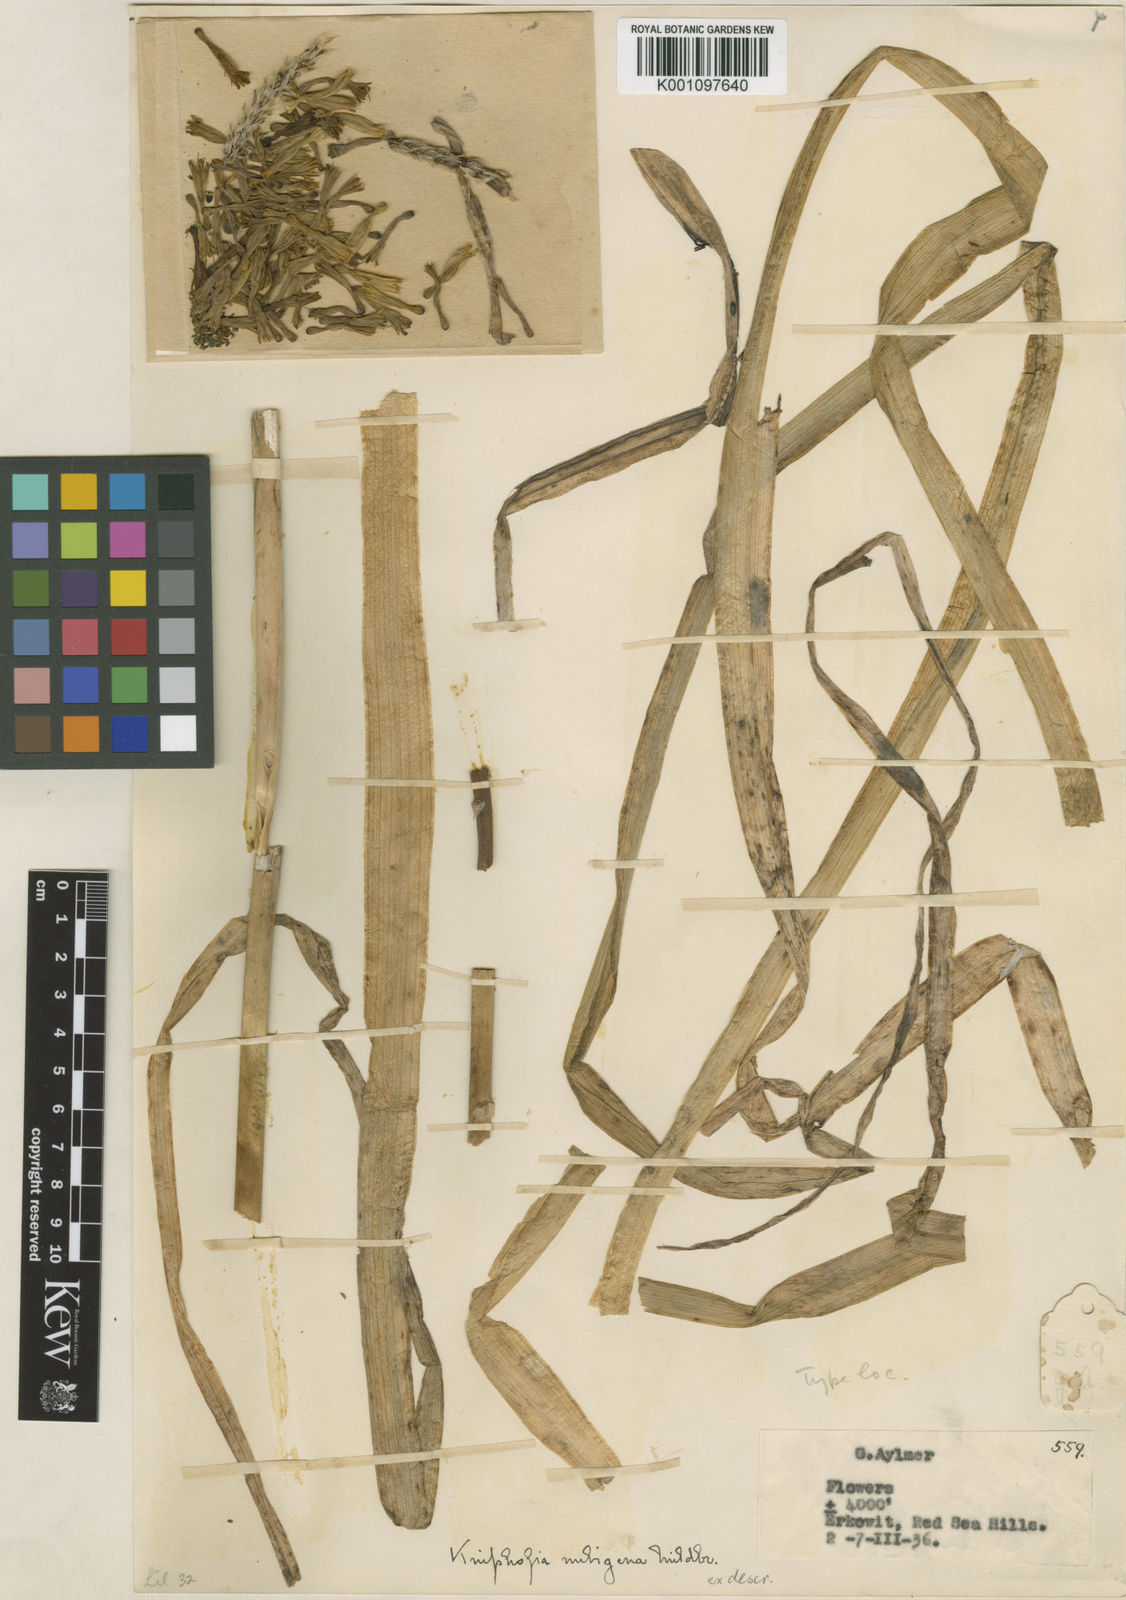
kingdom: Plantae
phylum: Tracheophyta
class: Liliopsida
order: Asparagales
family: Asphodelaceae
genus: Kniphofia
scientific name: Kniphofia nubigena
